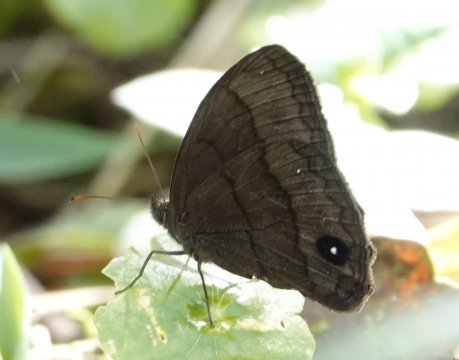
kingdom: Animalia
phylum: Arthropoda
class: Insecta
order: Lepidoptera
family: Nymphalidae
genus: Forsterinaria
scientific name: Forsterinaria neonympha
